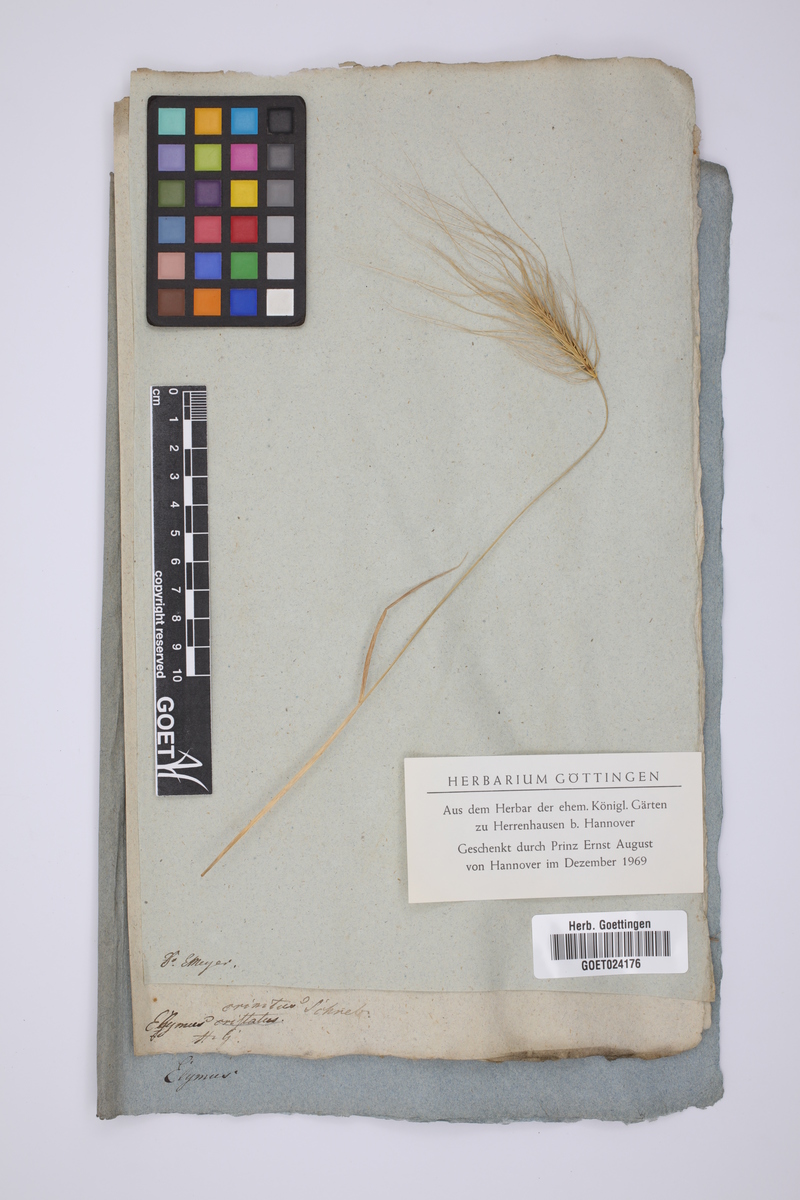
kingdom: Plantae
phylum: Tracheophyta
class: Liliopsida
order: Poales
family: Poaceae
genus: Taeniatherum
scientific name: Taeniatherum caput-medusae
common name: Medusahead
